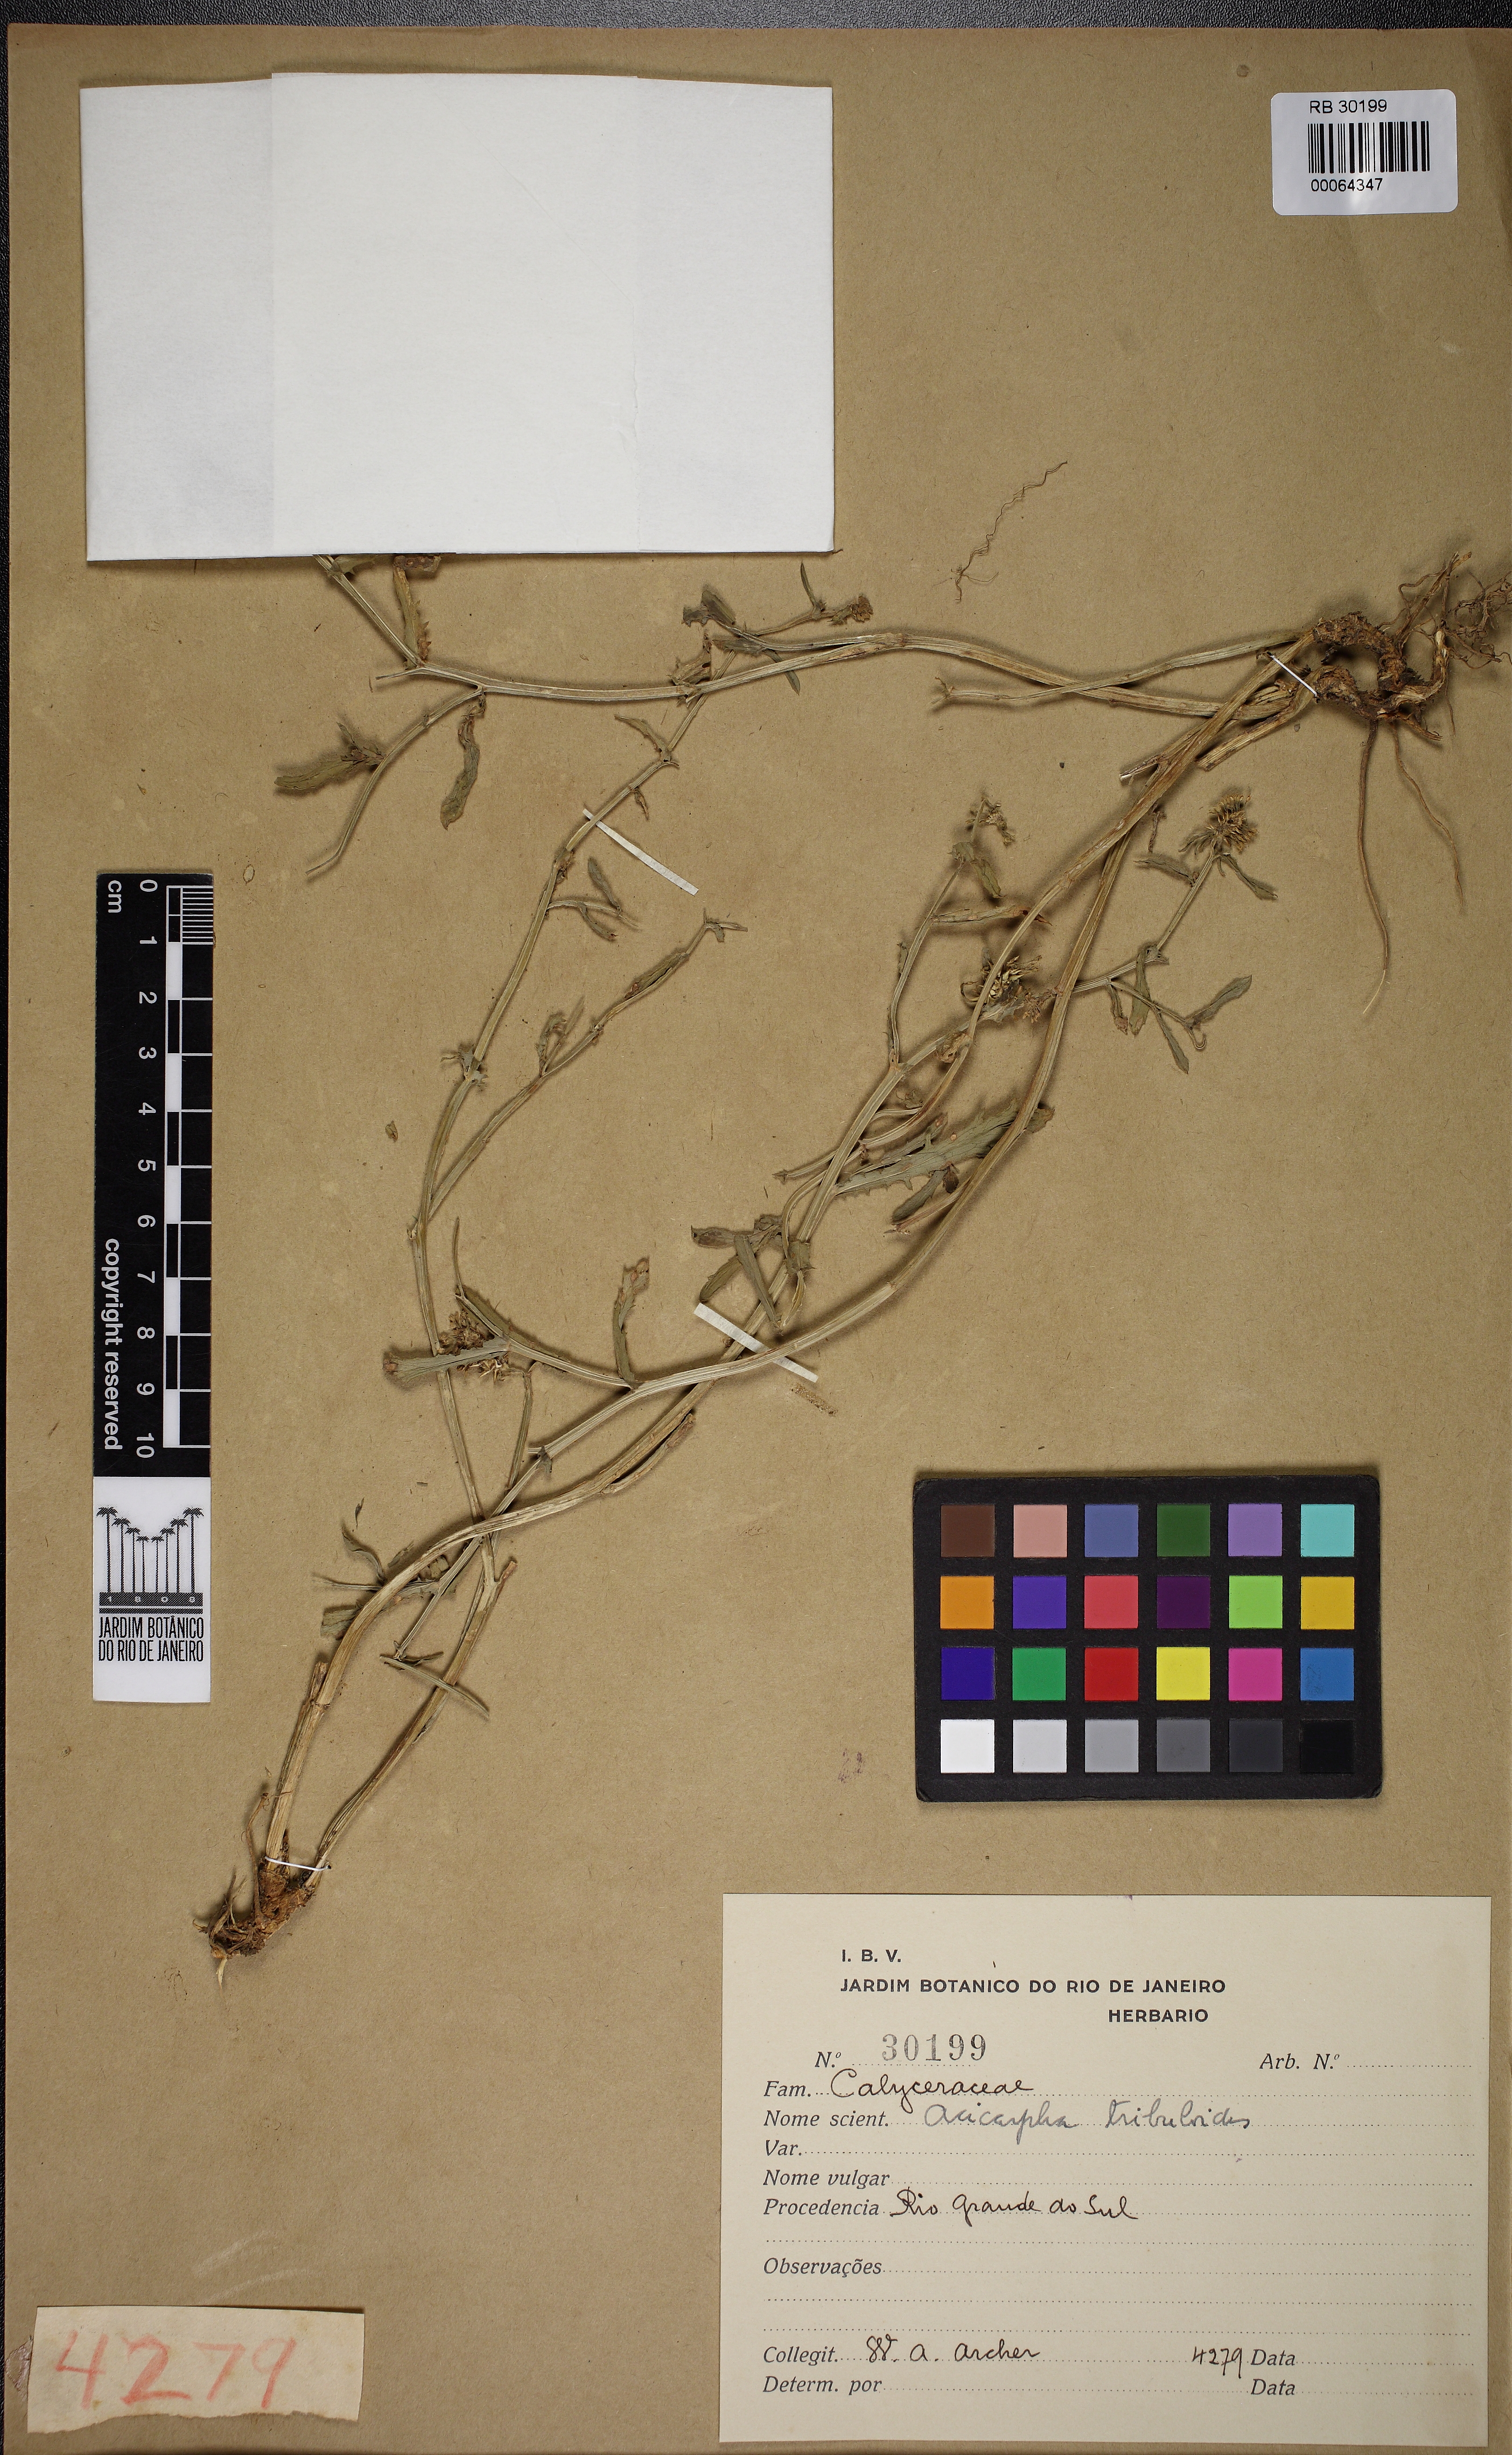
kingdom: Plantae
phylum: Tracheophyta
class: Magnoliopsida
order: Asterales
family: Calyceraceae
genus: Acicarpha
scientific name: Acicarpha tribuloides
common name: Madam gorgon
